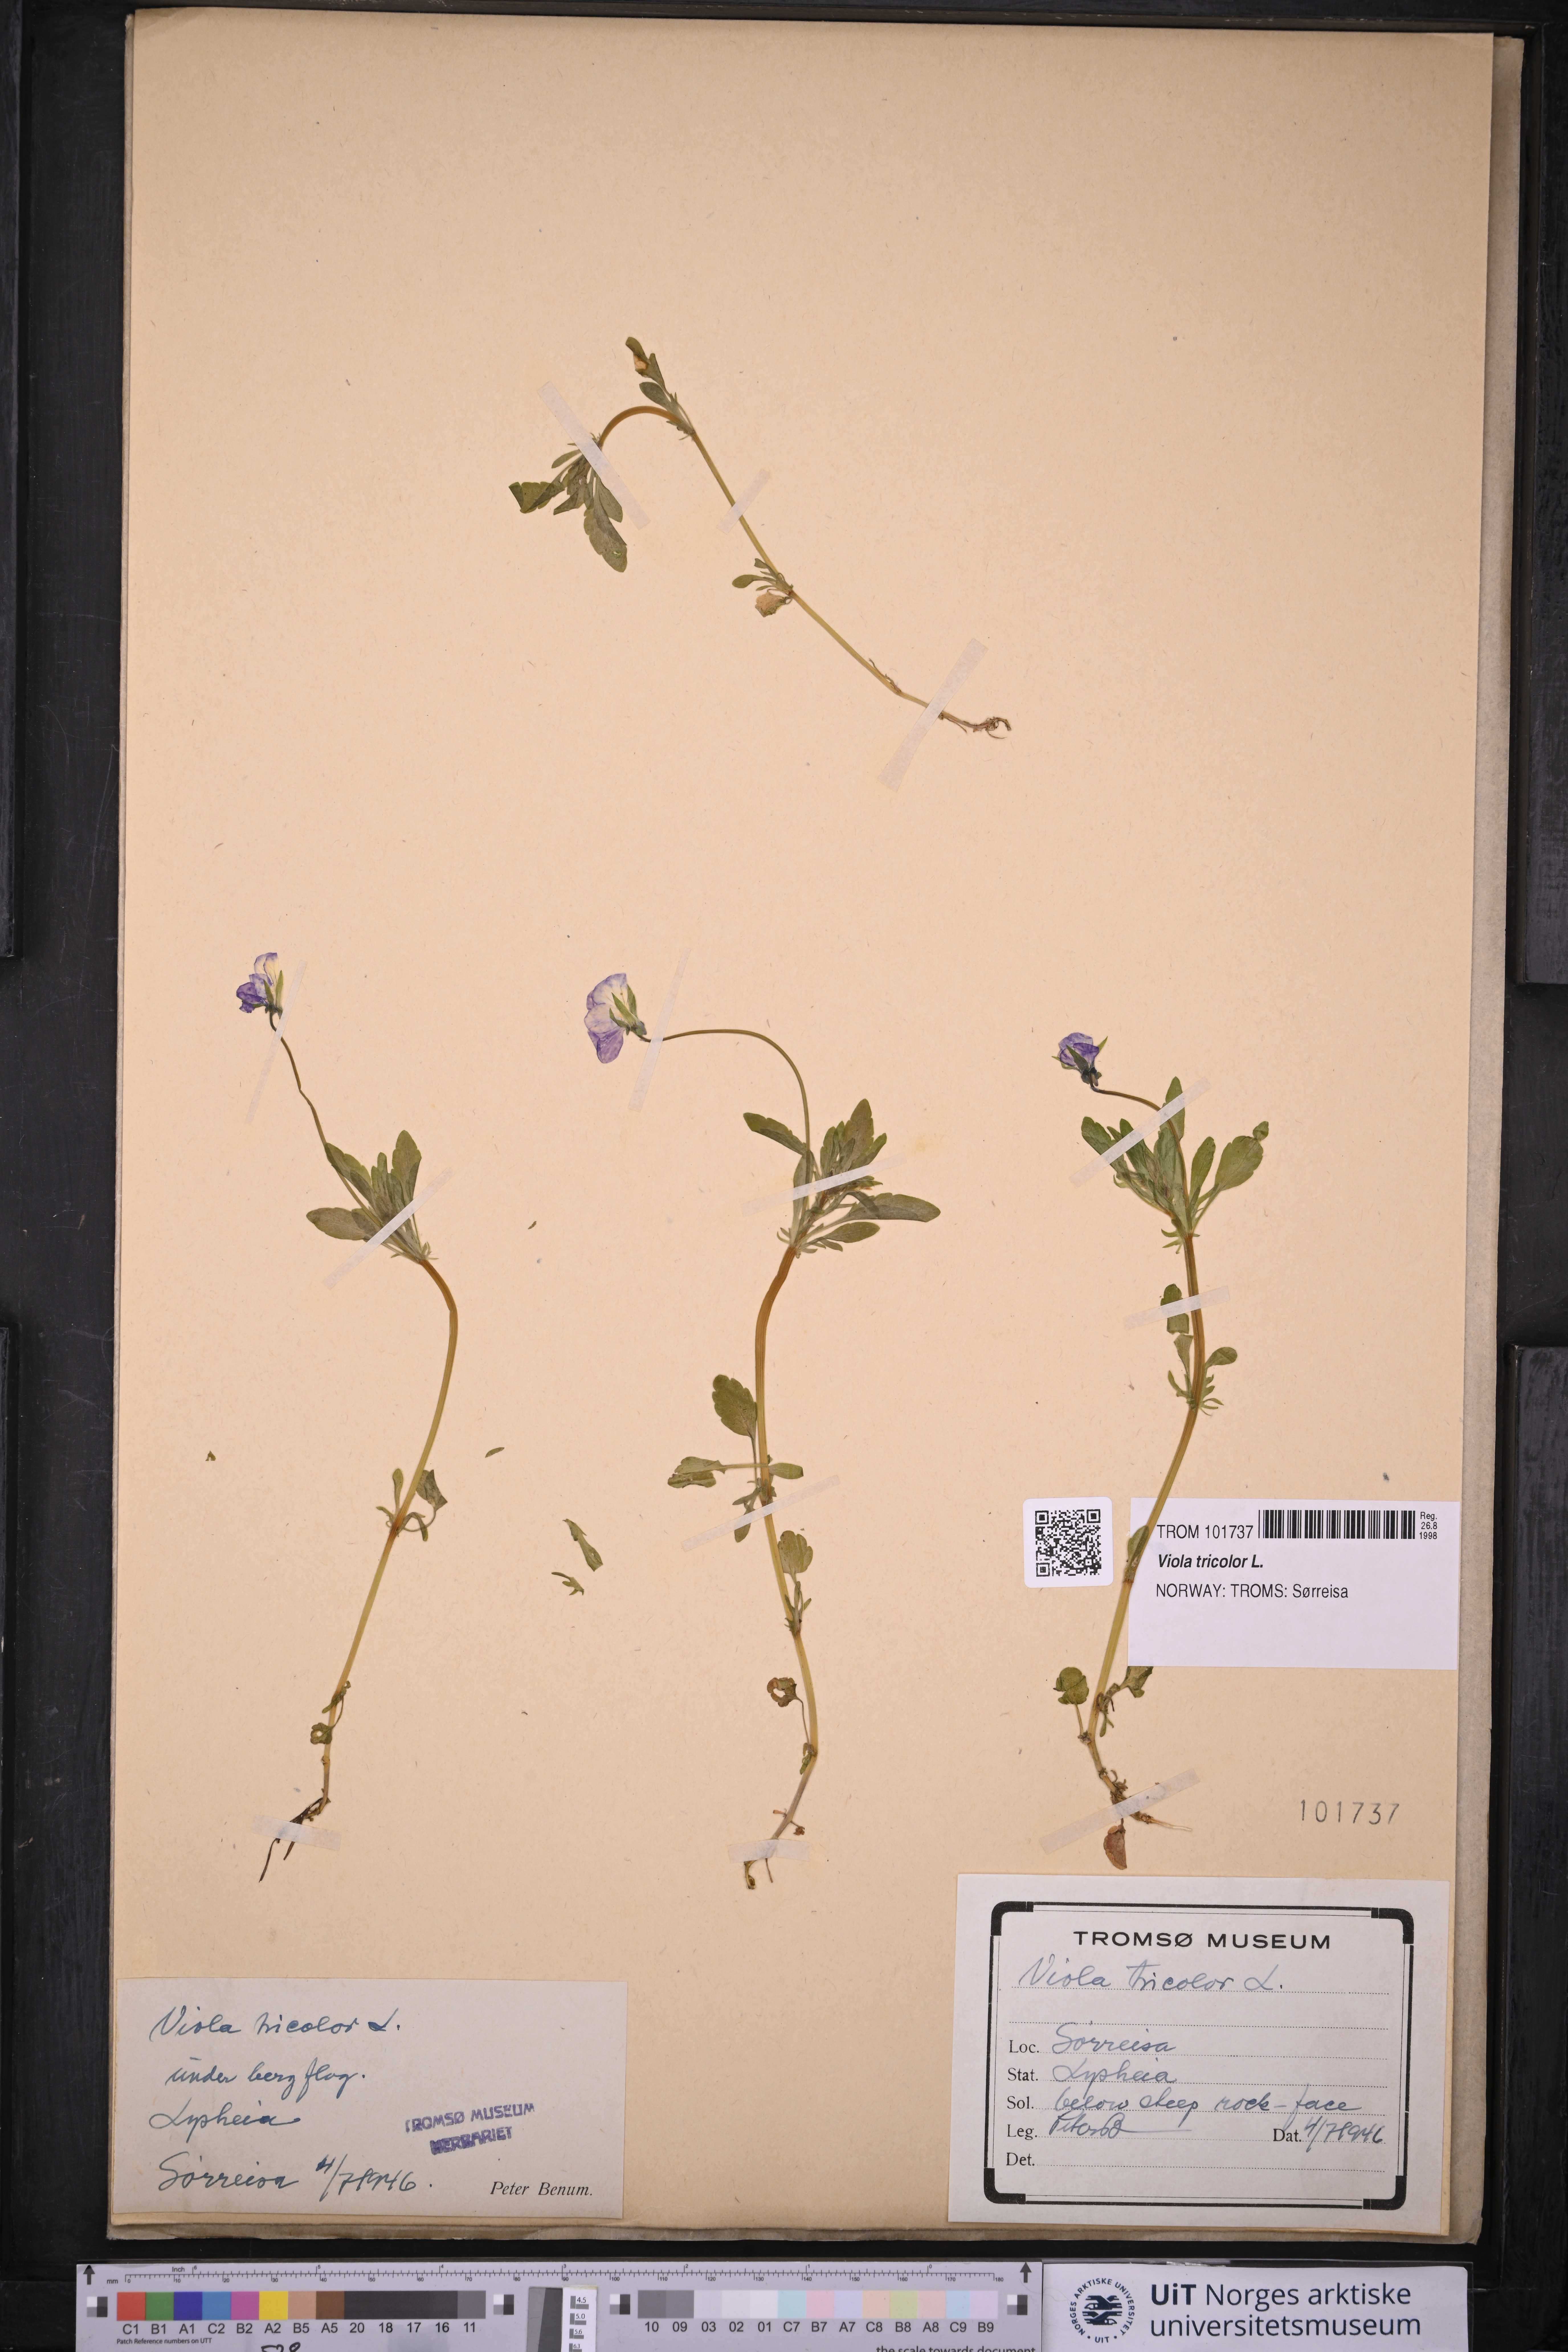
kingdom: Plantae
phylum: Tracheophyta
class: Magnoliopsida
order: Malpighiales
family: Violaceae
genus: Viola
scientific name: Viola tricolor
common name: Pansy
